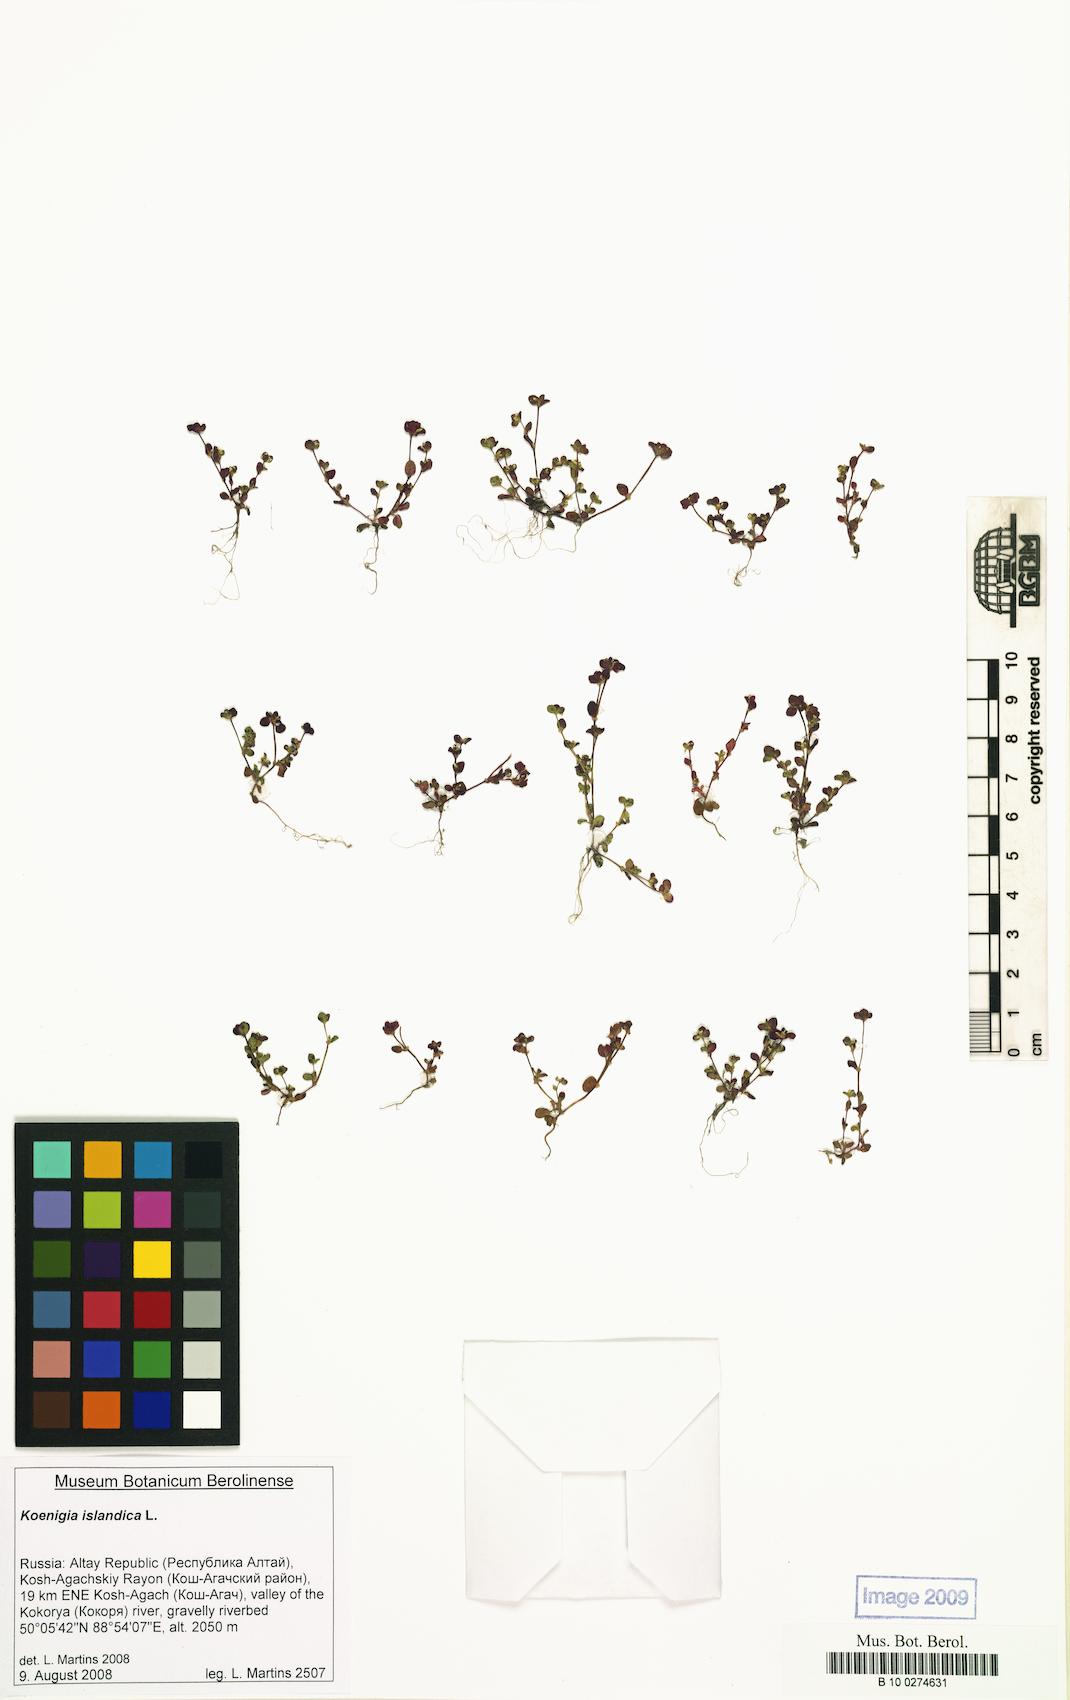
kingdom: Plantae
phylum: Tracheophyta
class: Magnoliopsida
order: Caryophyllales
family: Polygonaceae
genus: Koenigia
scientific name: Koenigia islandica
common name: Iceland-purslane
